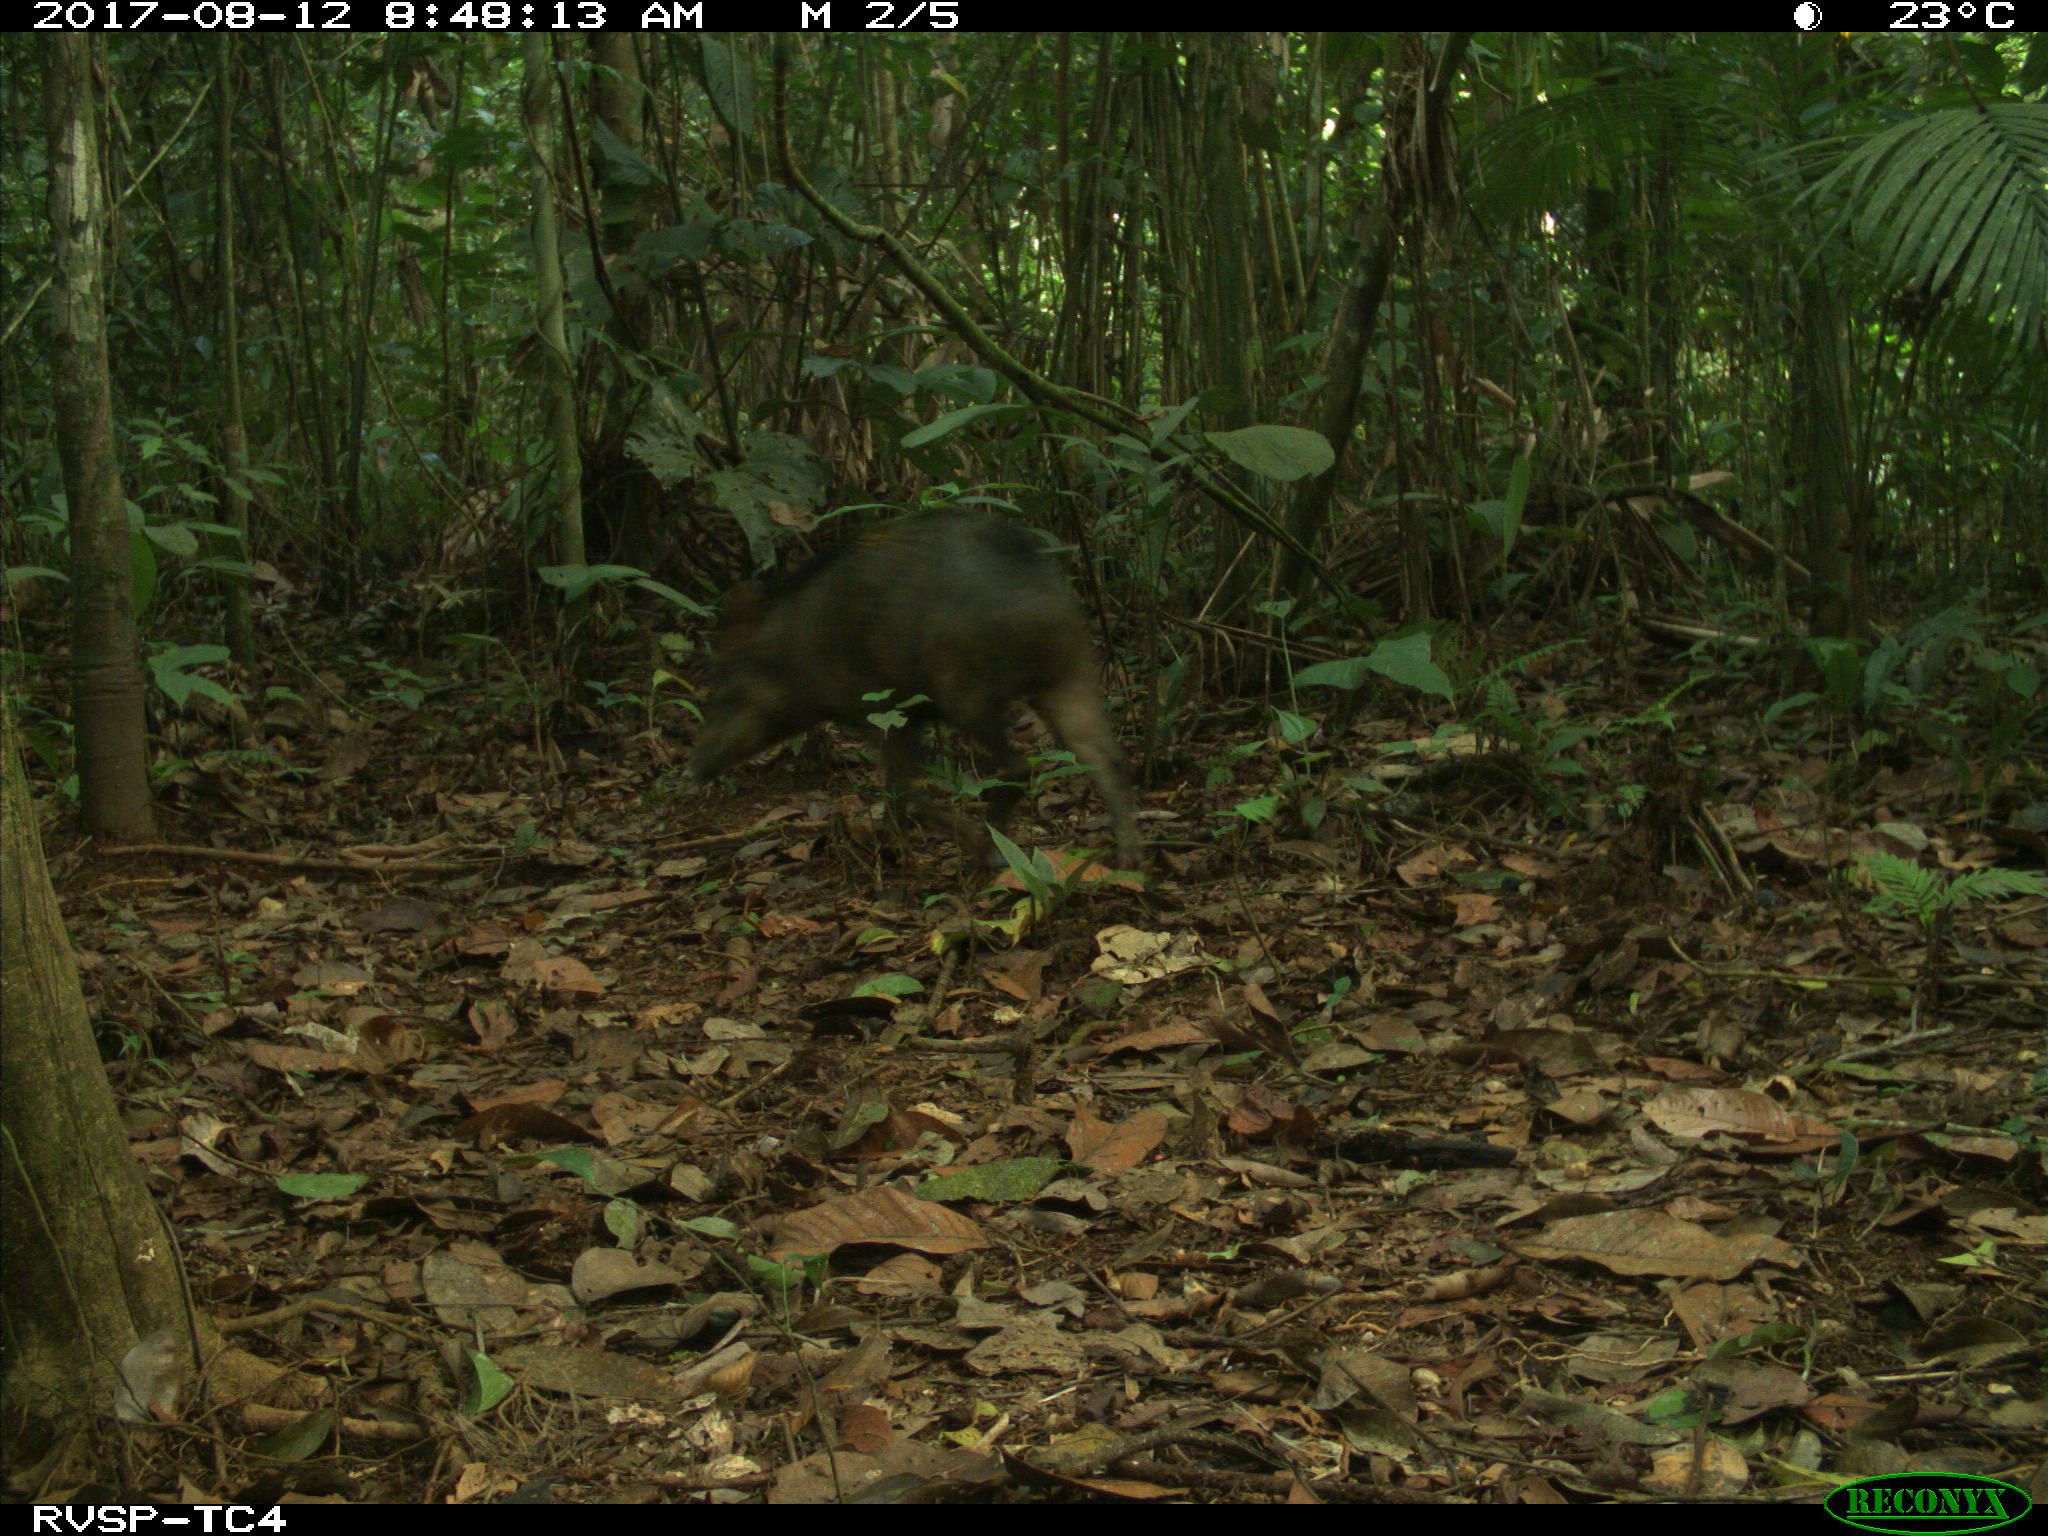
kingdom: Animalia
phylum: Chordata
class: Mammalia
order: Artiodactyla
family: Tayassuidae
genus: Tayassu
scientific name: Tayassu pecari
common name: White-lipped peccary
